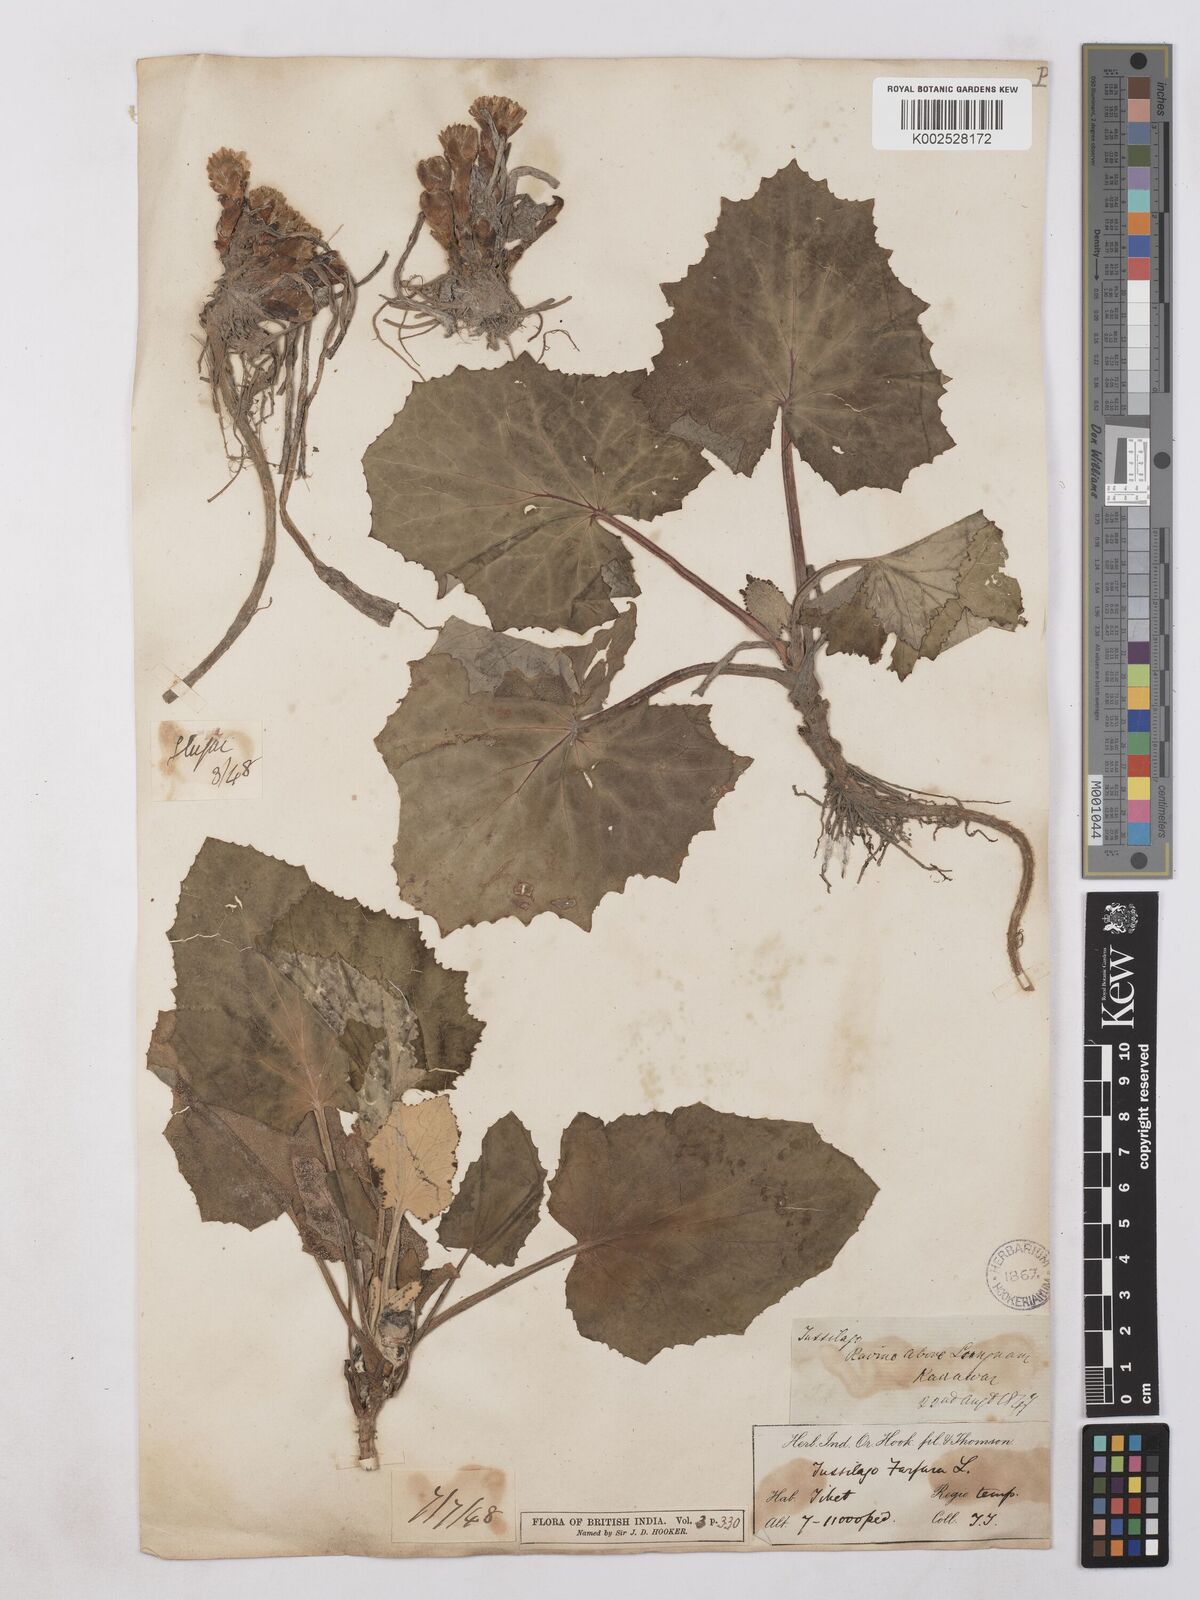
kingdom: Plantae
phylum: Tracheophyta
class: Magnoliopsida
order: Asterales
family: Asteraceae
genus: Tussilago
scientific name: Tussilago
